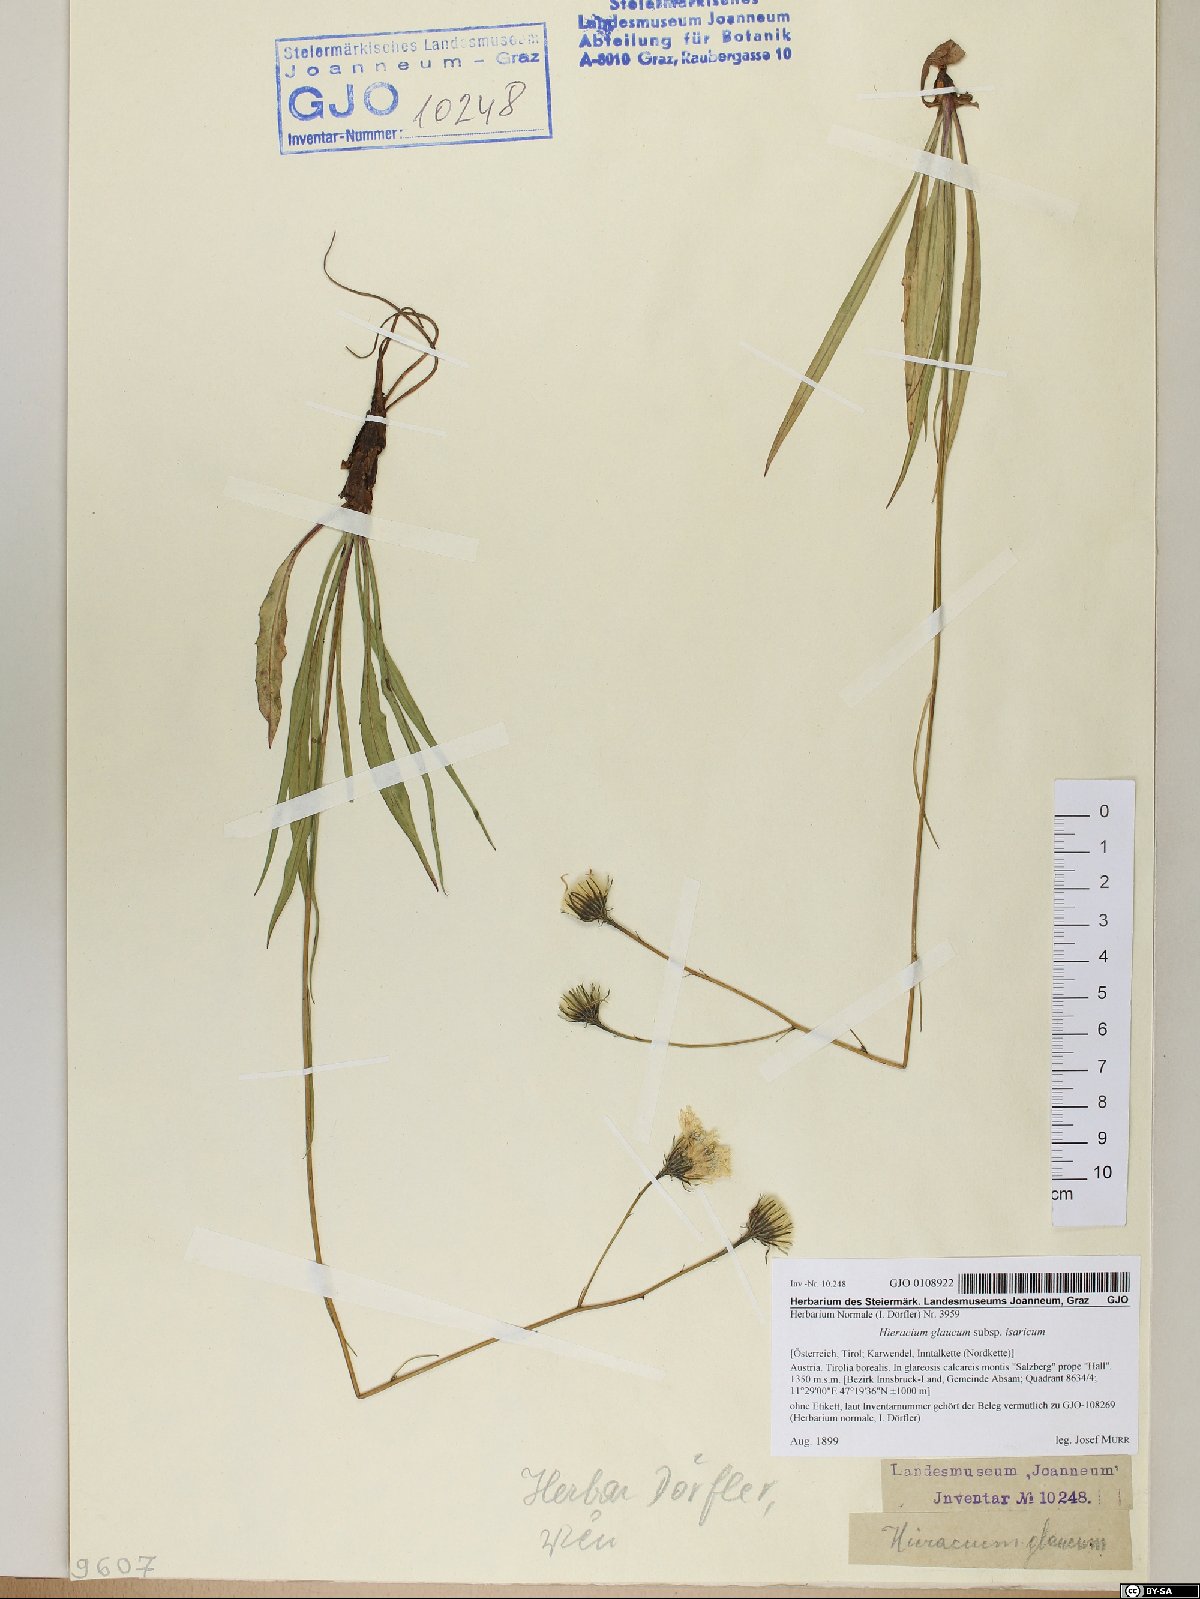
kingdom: Plantae
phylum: Tracheophyta
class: Magnoliopsida
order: Asterales
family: Asteraceae
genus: Hieracium
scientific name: Hieracium glaucum
